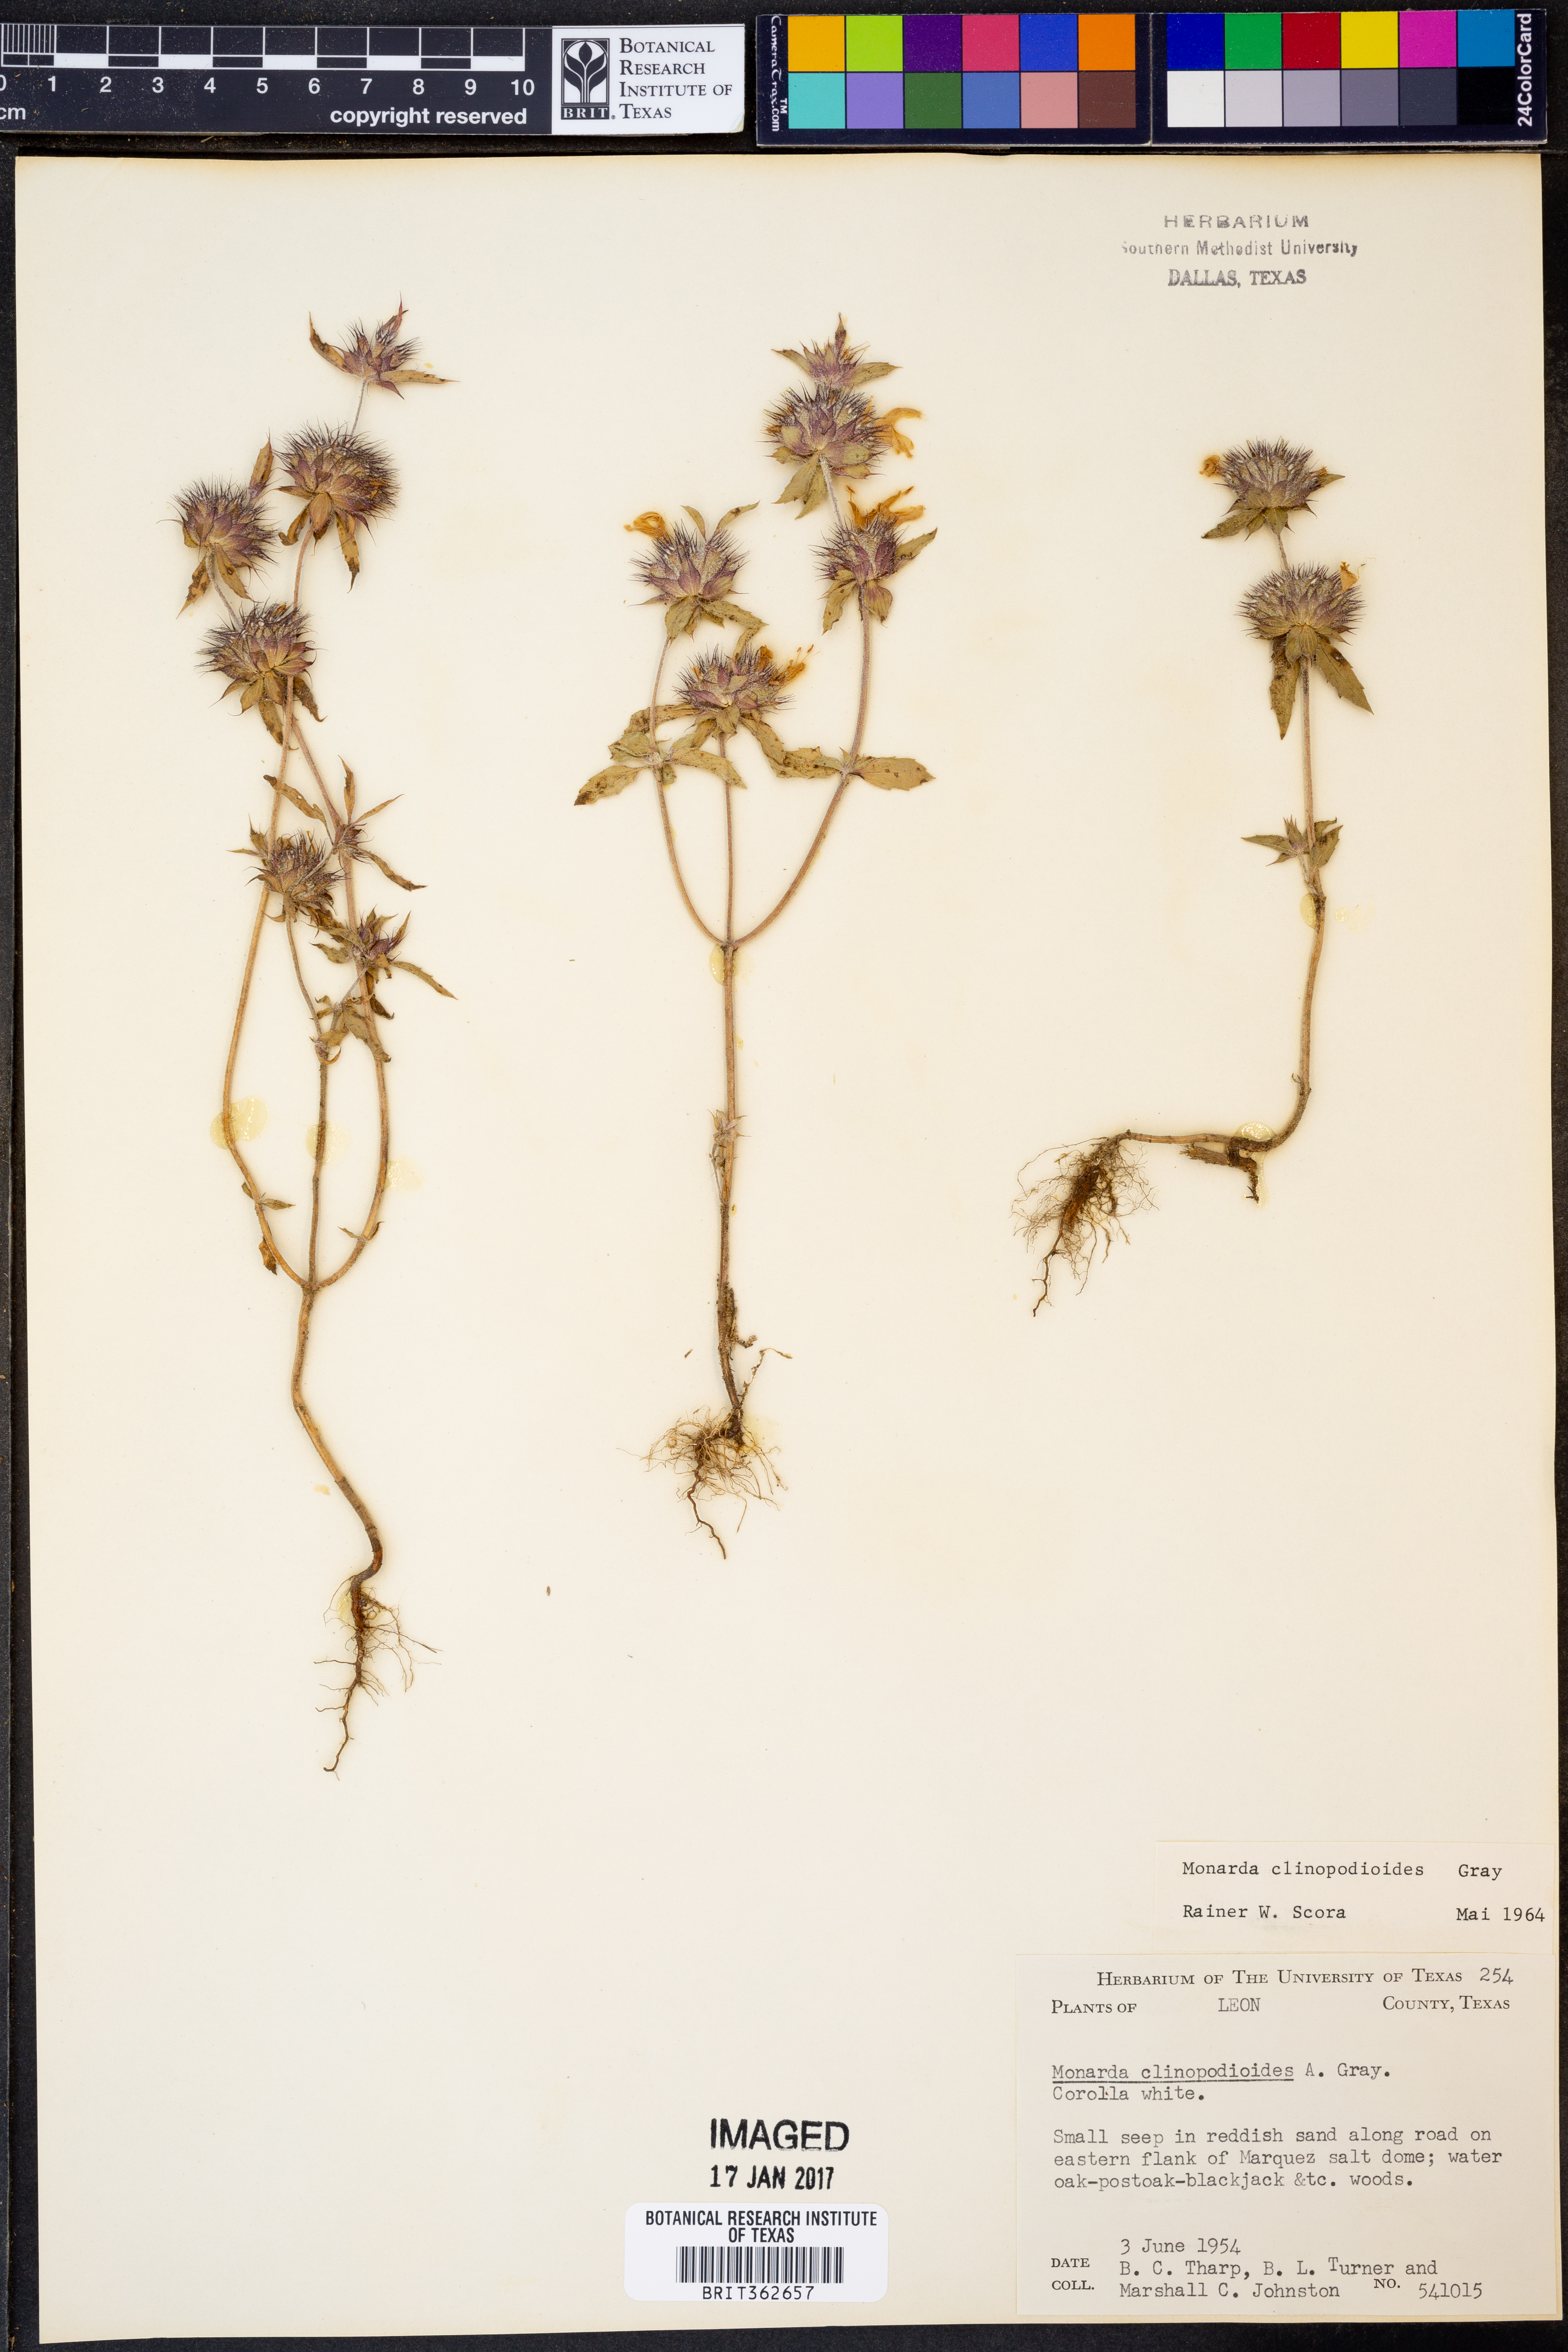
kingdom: Plantae
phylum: Tracheophyta
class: Magnoliopsida
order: Lamiales
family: Lamiaceae
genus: Monarda
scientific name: Monarda clinopodioides
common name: Basil beebalm
